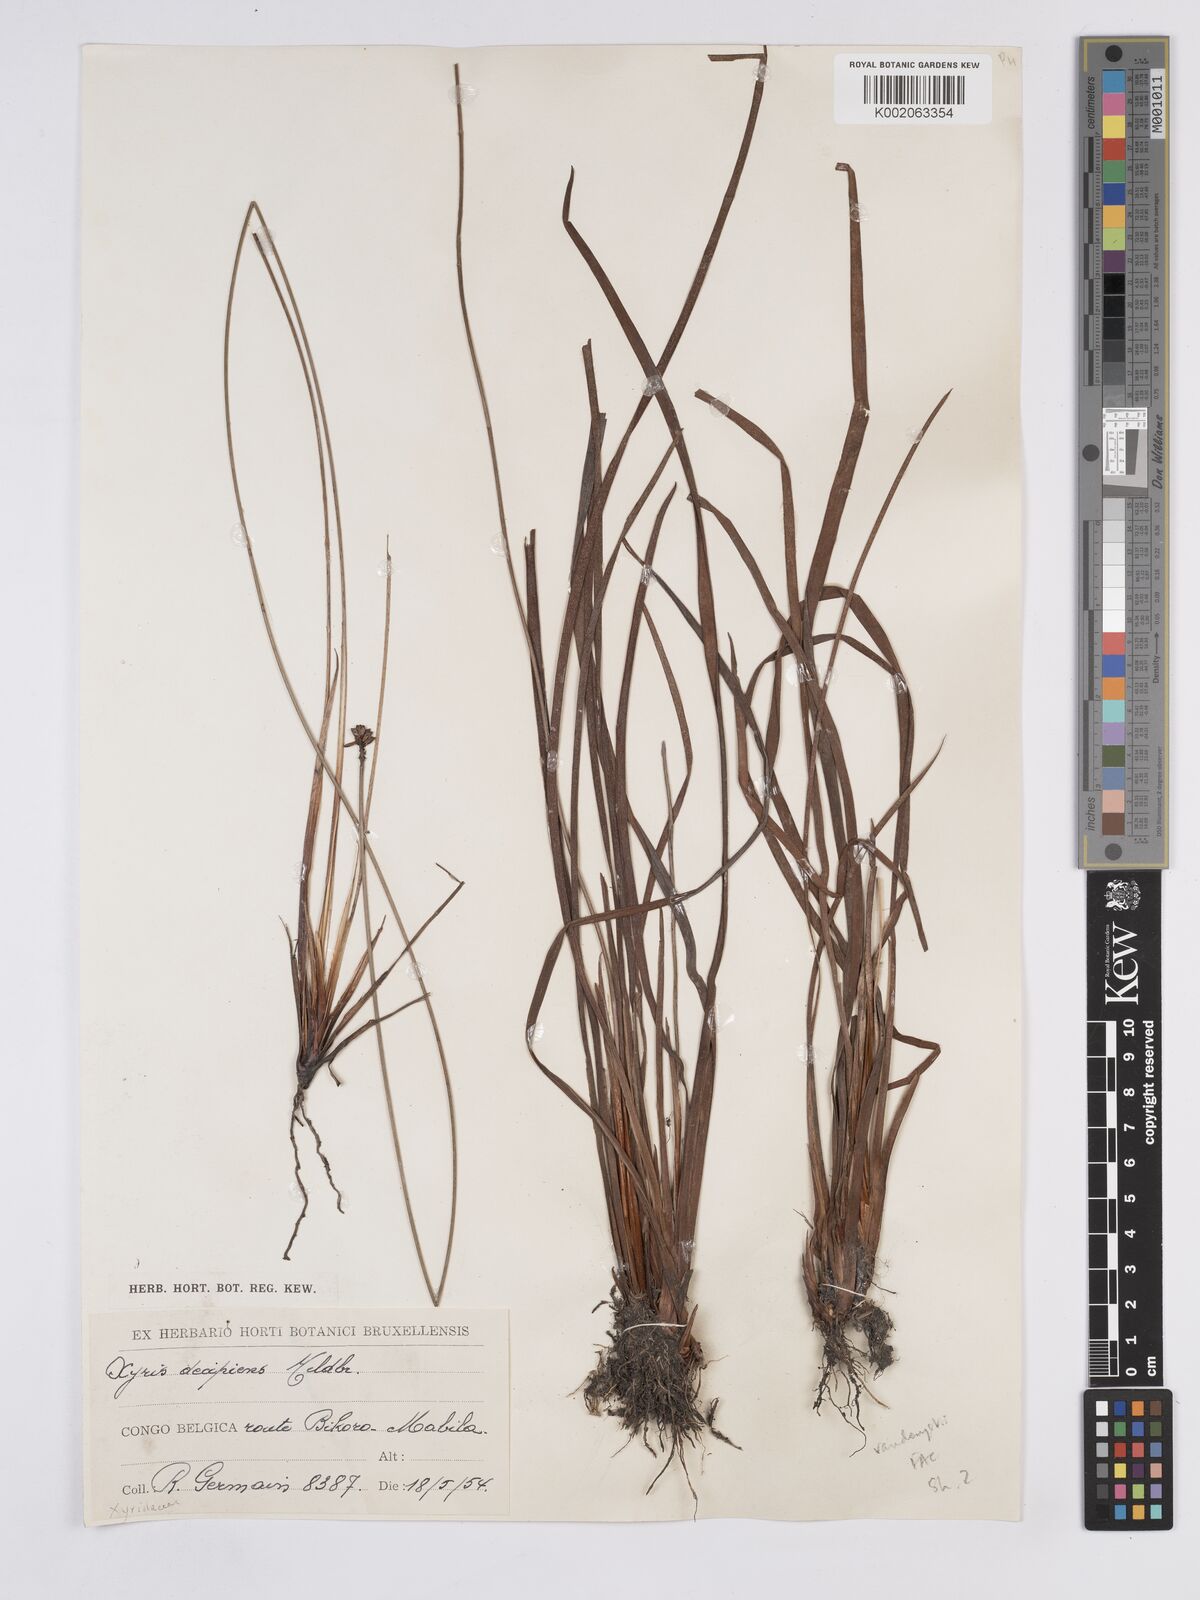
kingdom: Plantae
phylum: Tracheophyta
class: Liliopsida
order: Poales
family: Xyridaceae
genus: Xyris
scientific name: Xyris decipiens
